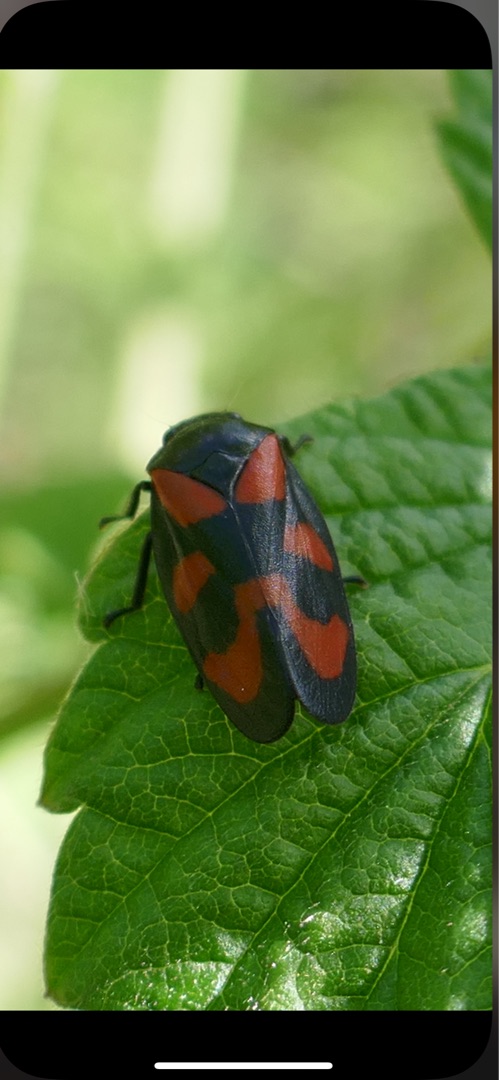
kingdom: Animalia
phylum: Arthropoda
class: Insecta
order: Hemiptera
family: Cercopidae
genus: Cercopis
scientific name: Cercopis vulnerata
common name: Blodcikade
